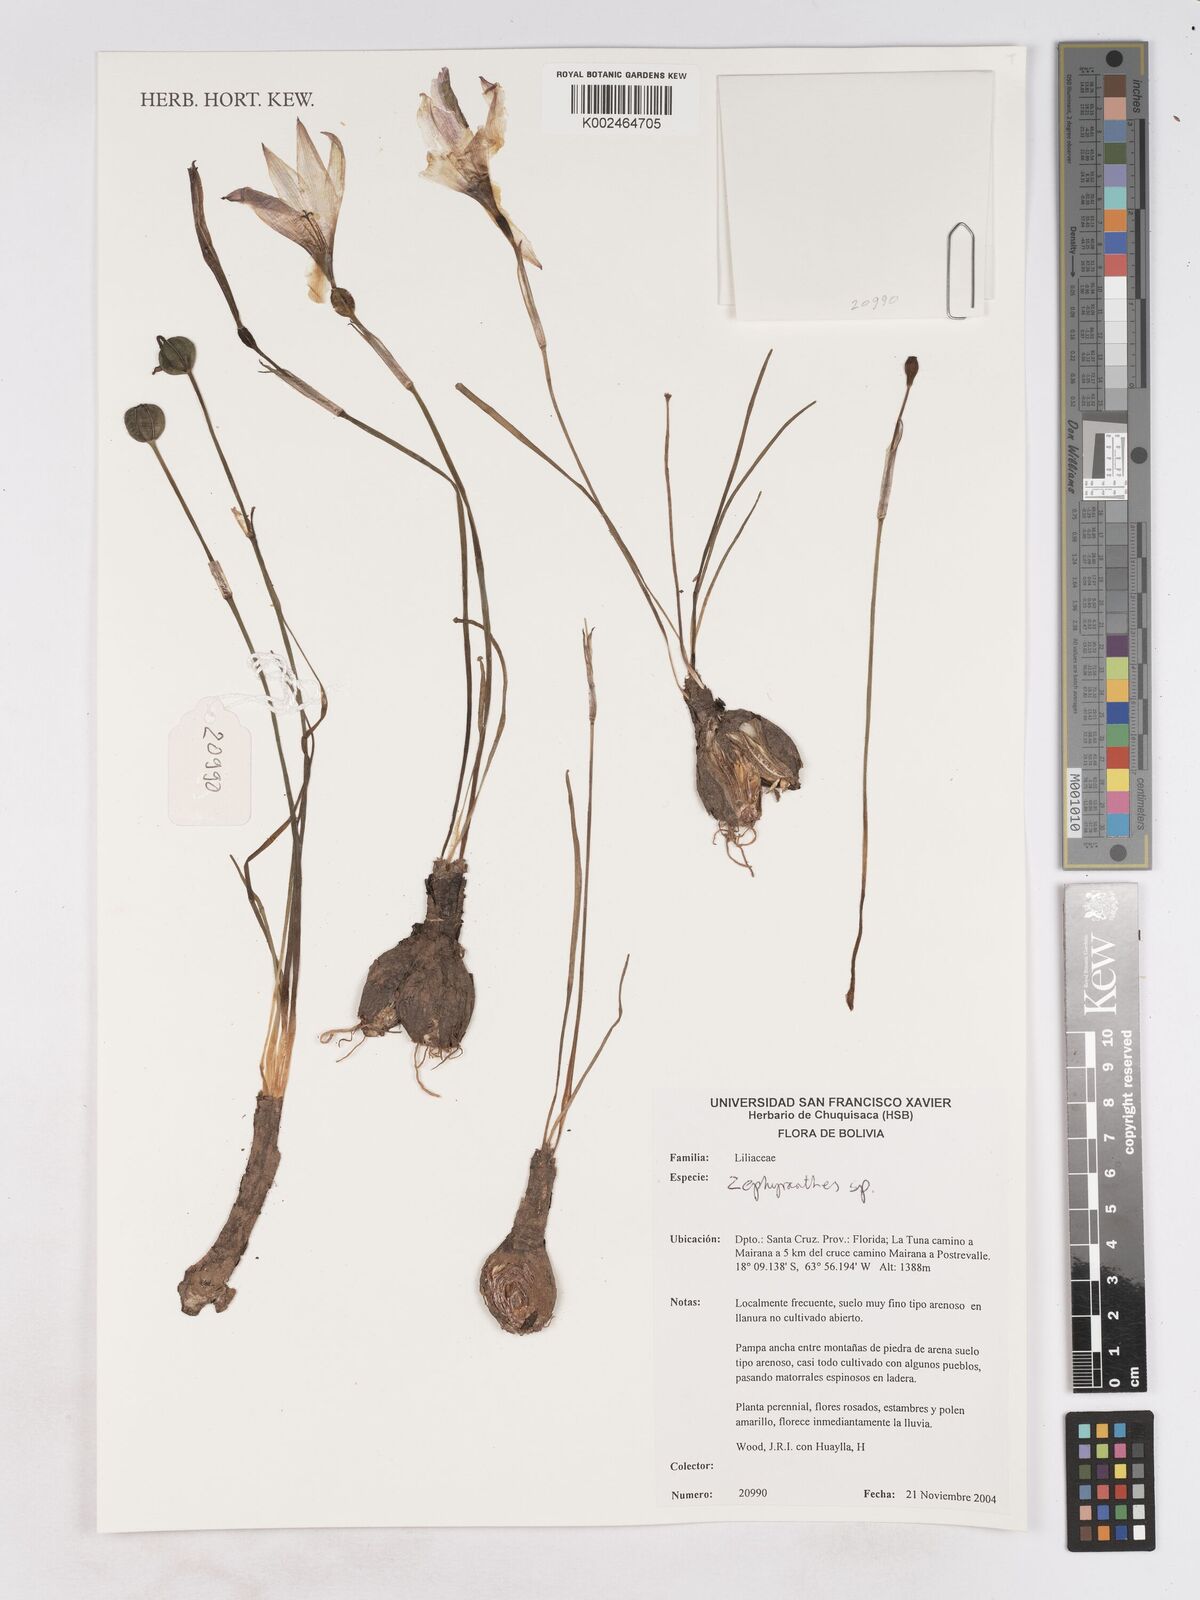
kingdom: Plantae
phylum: Tracheophyta
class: Liliopsida
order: Asparagales
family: Amaryllidaceae
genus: Zephyranthes
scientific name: Zephyranthes
